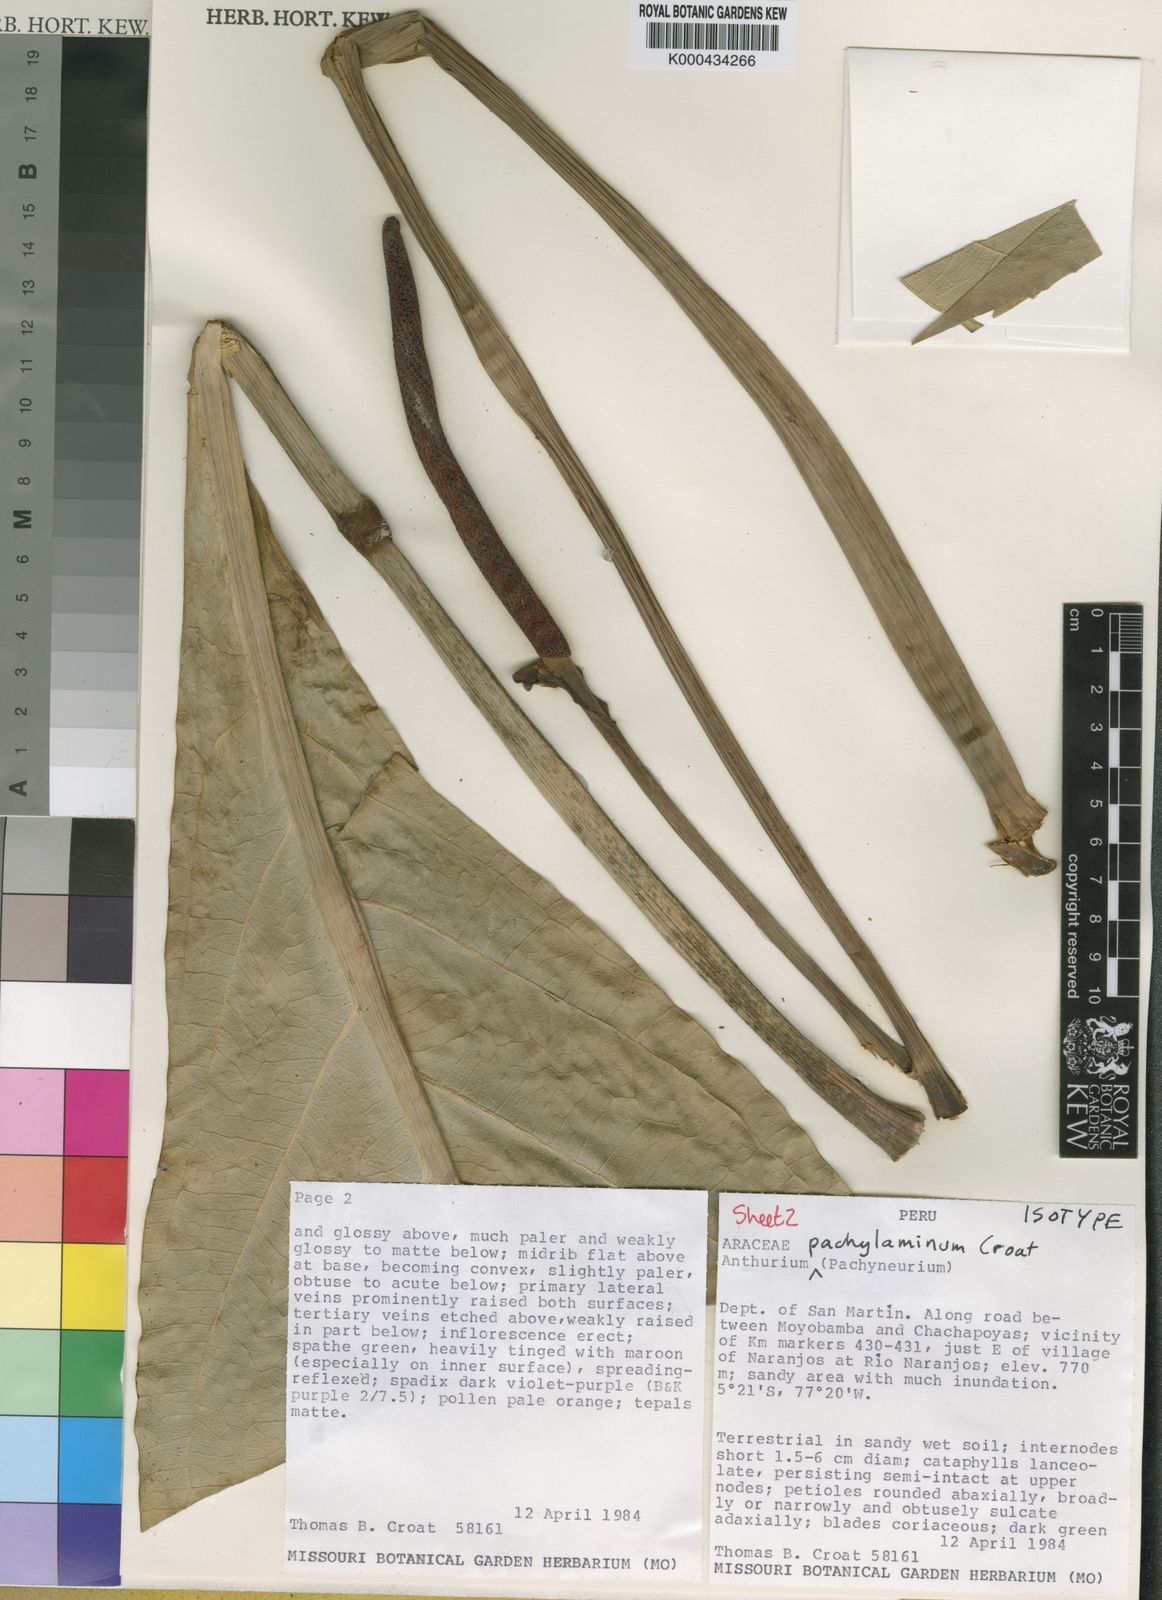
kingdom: Plantae
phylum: Tracheophyta
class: Liliopsida
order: Alismatales
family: Araceae
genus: Anthurium
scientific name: Anthurium pachylaminum
